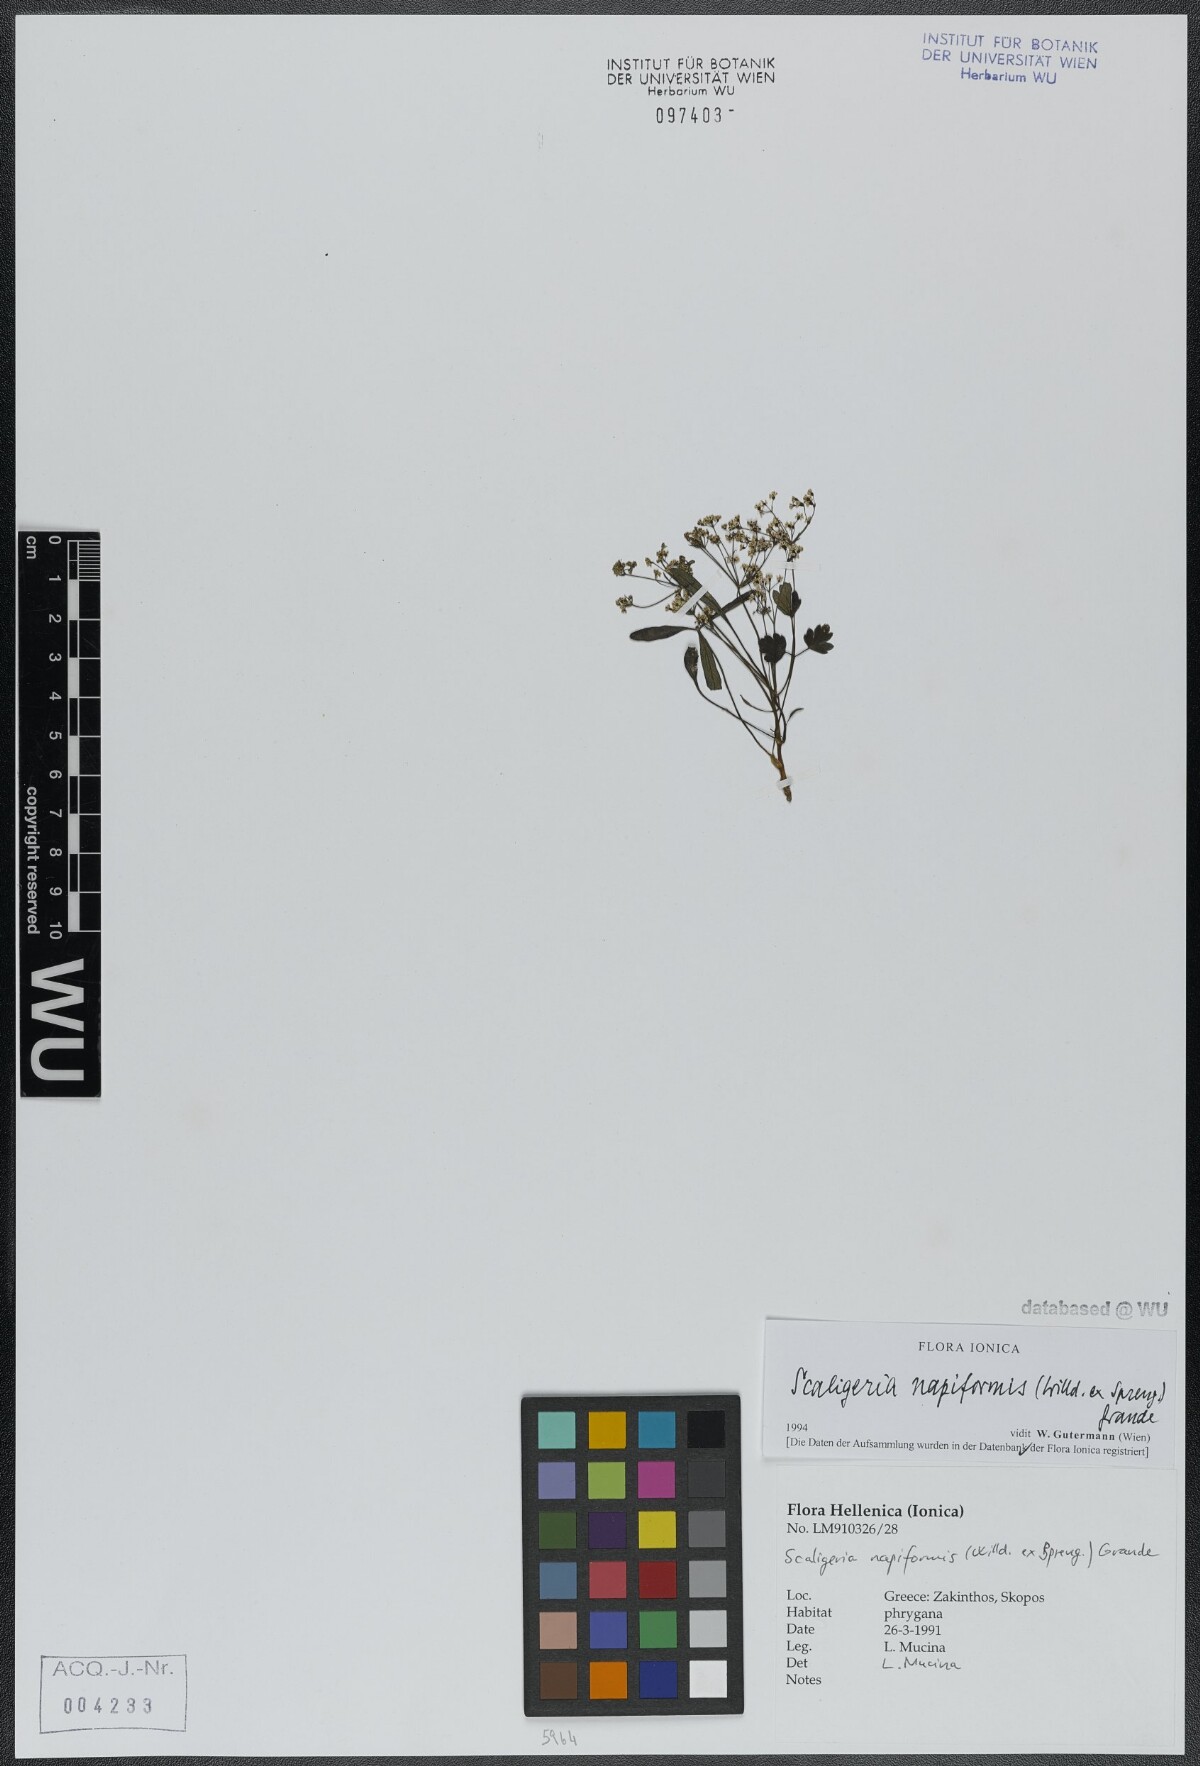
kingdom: Plantae
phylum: Tracheophyta
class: Magnoliopsida
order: Apiales
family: Apiaceae
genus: Scaligeria
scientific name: Scaligeria napiformis
